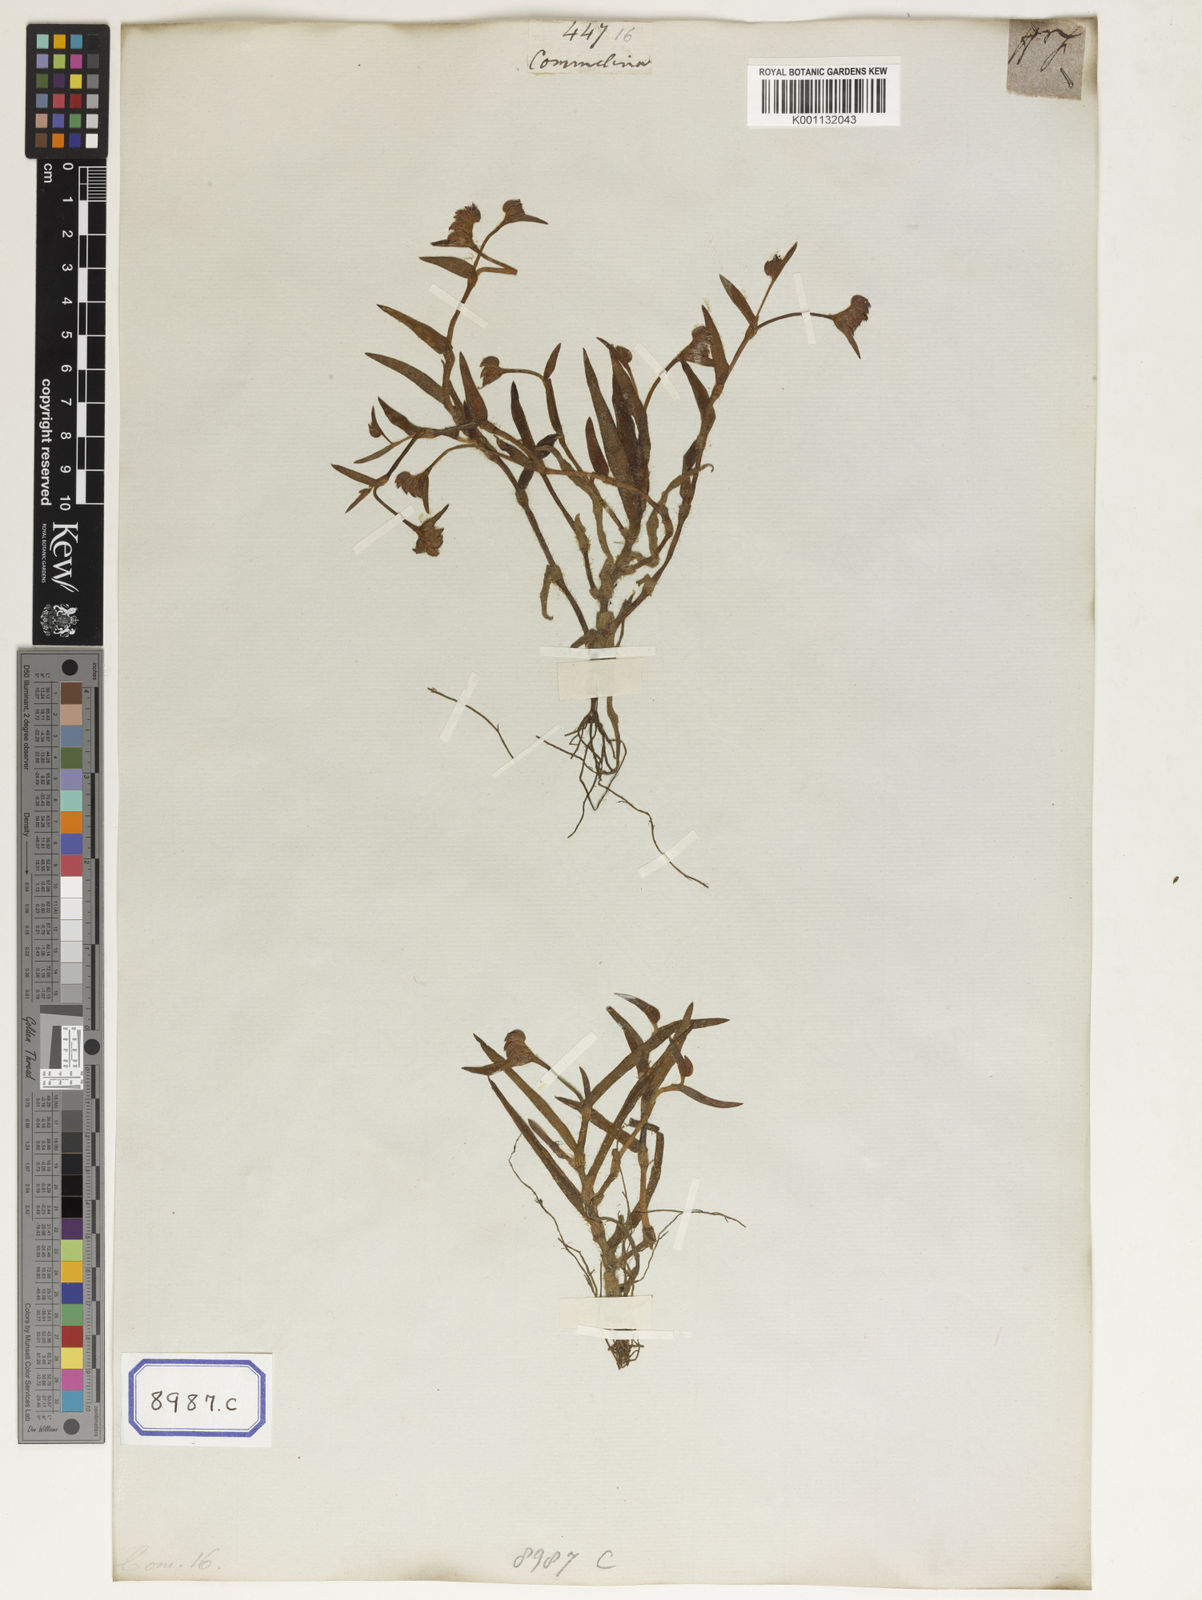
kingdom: Plantae
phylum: Tracheophyta
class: Liliopsida
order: Commelinales
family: Commelinaceae
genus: Cyanotis
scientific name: Cyanotis cristata
